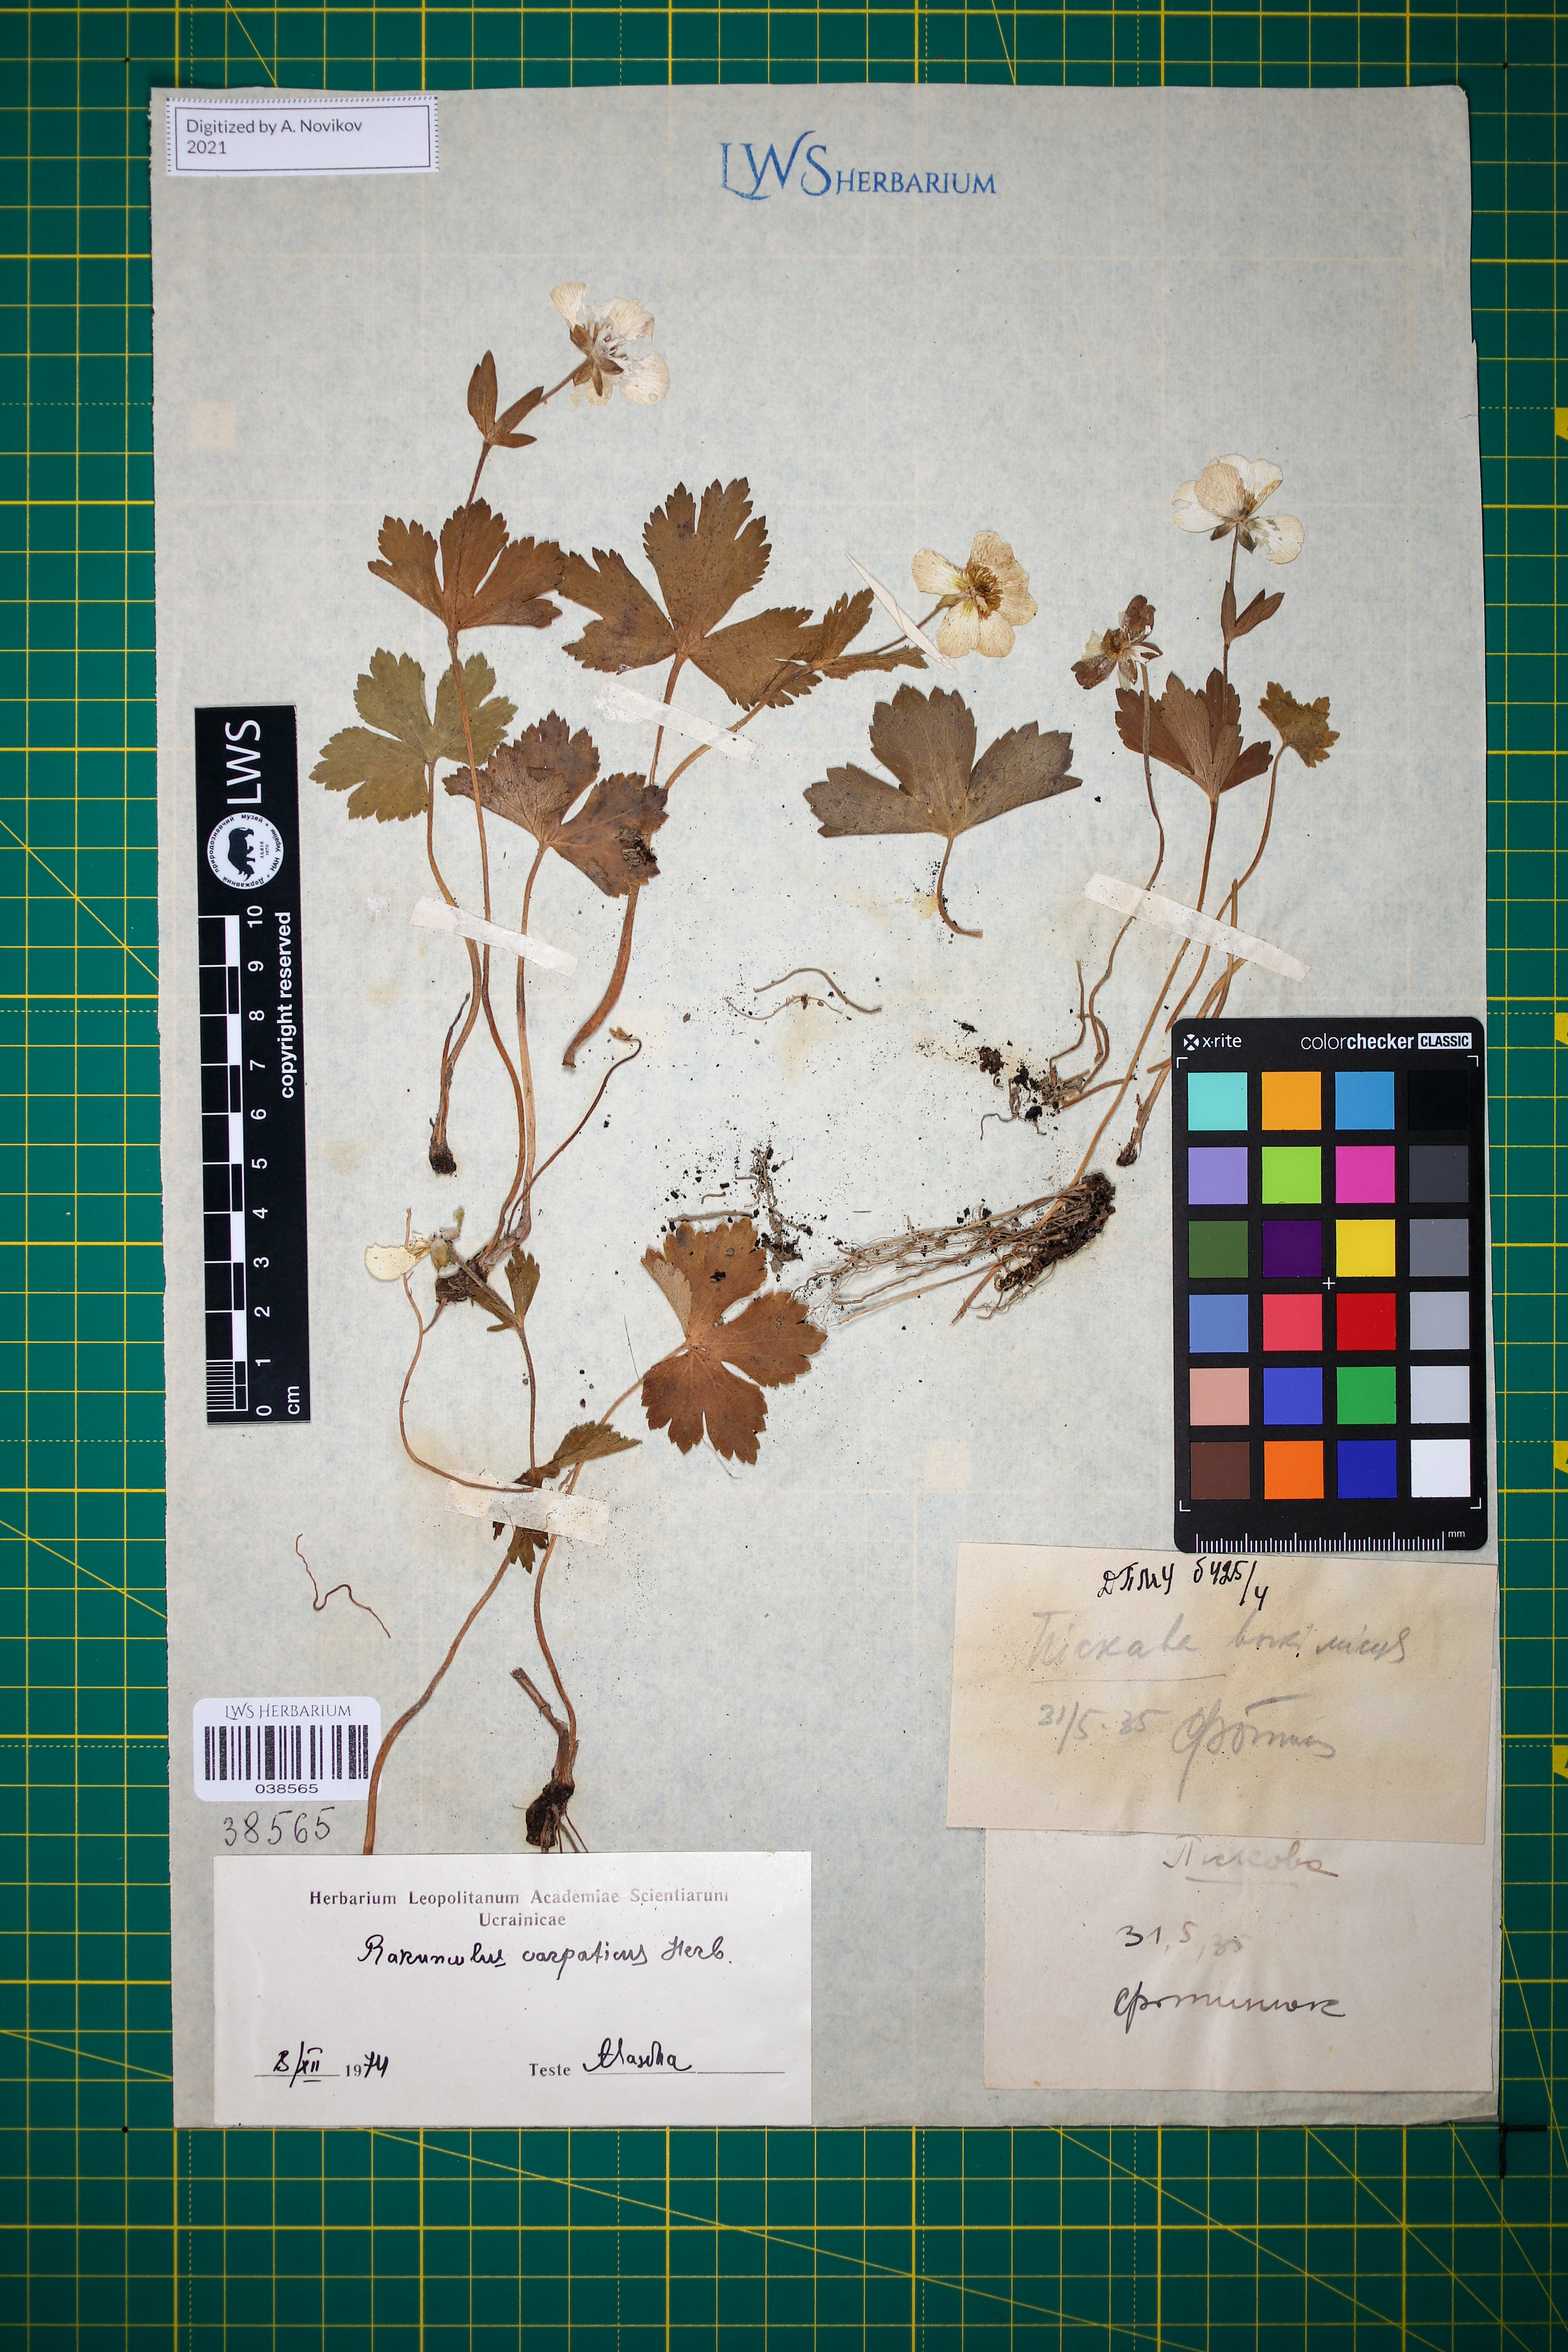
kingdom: Plantae
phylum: Tracheophyta
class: Magnoliopsida
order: Ranunculales
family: Ranunculaceae
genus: Ranunculus
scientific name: Ranunculus carpaticus
